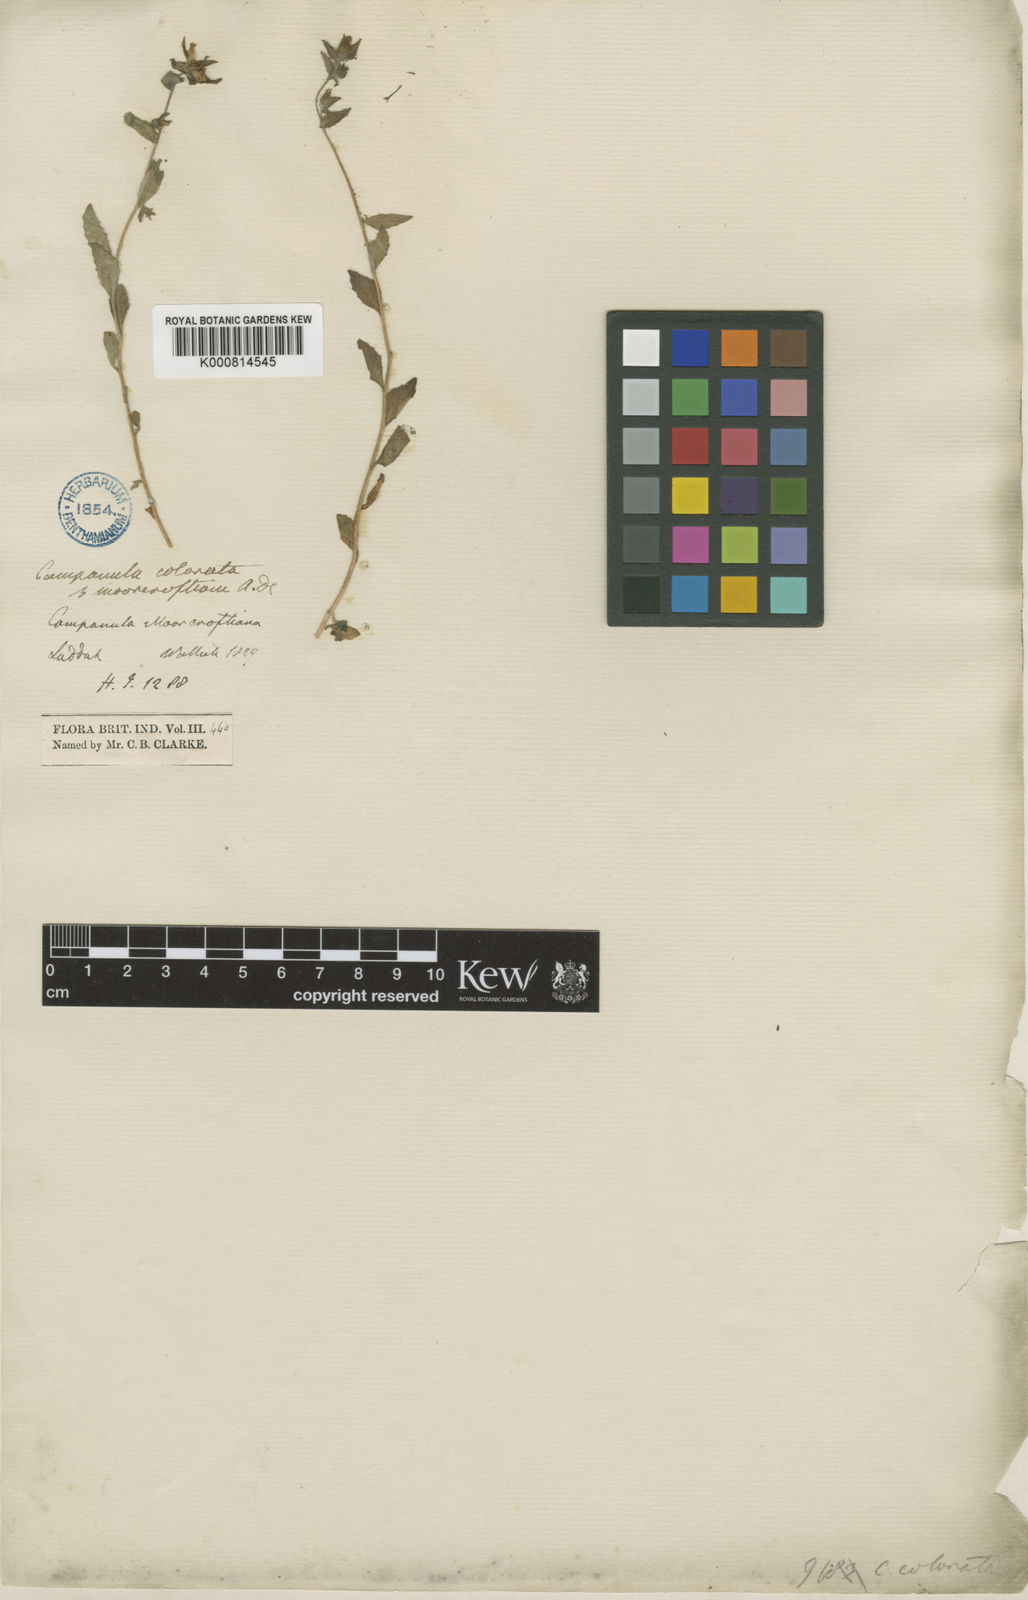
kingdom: Plantae
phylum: Tracheophyta
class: Magnoliopsida
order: Asterales
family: Campanulaceae
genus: Campanula
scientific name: Campanula pallida
